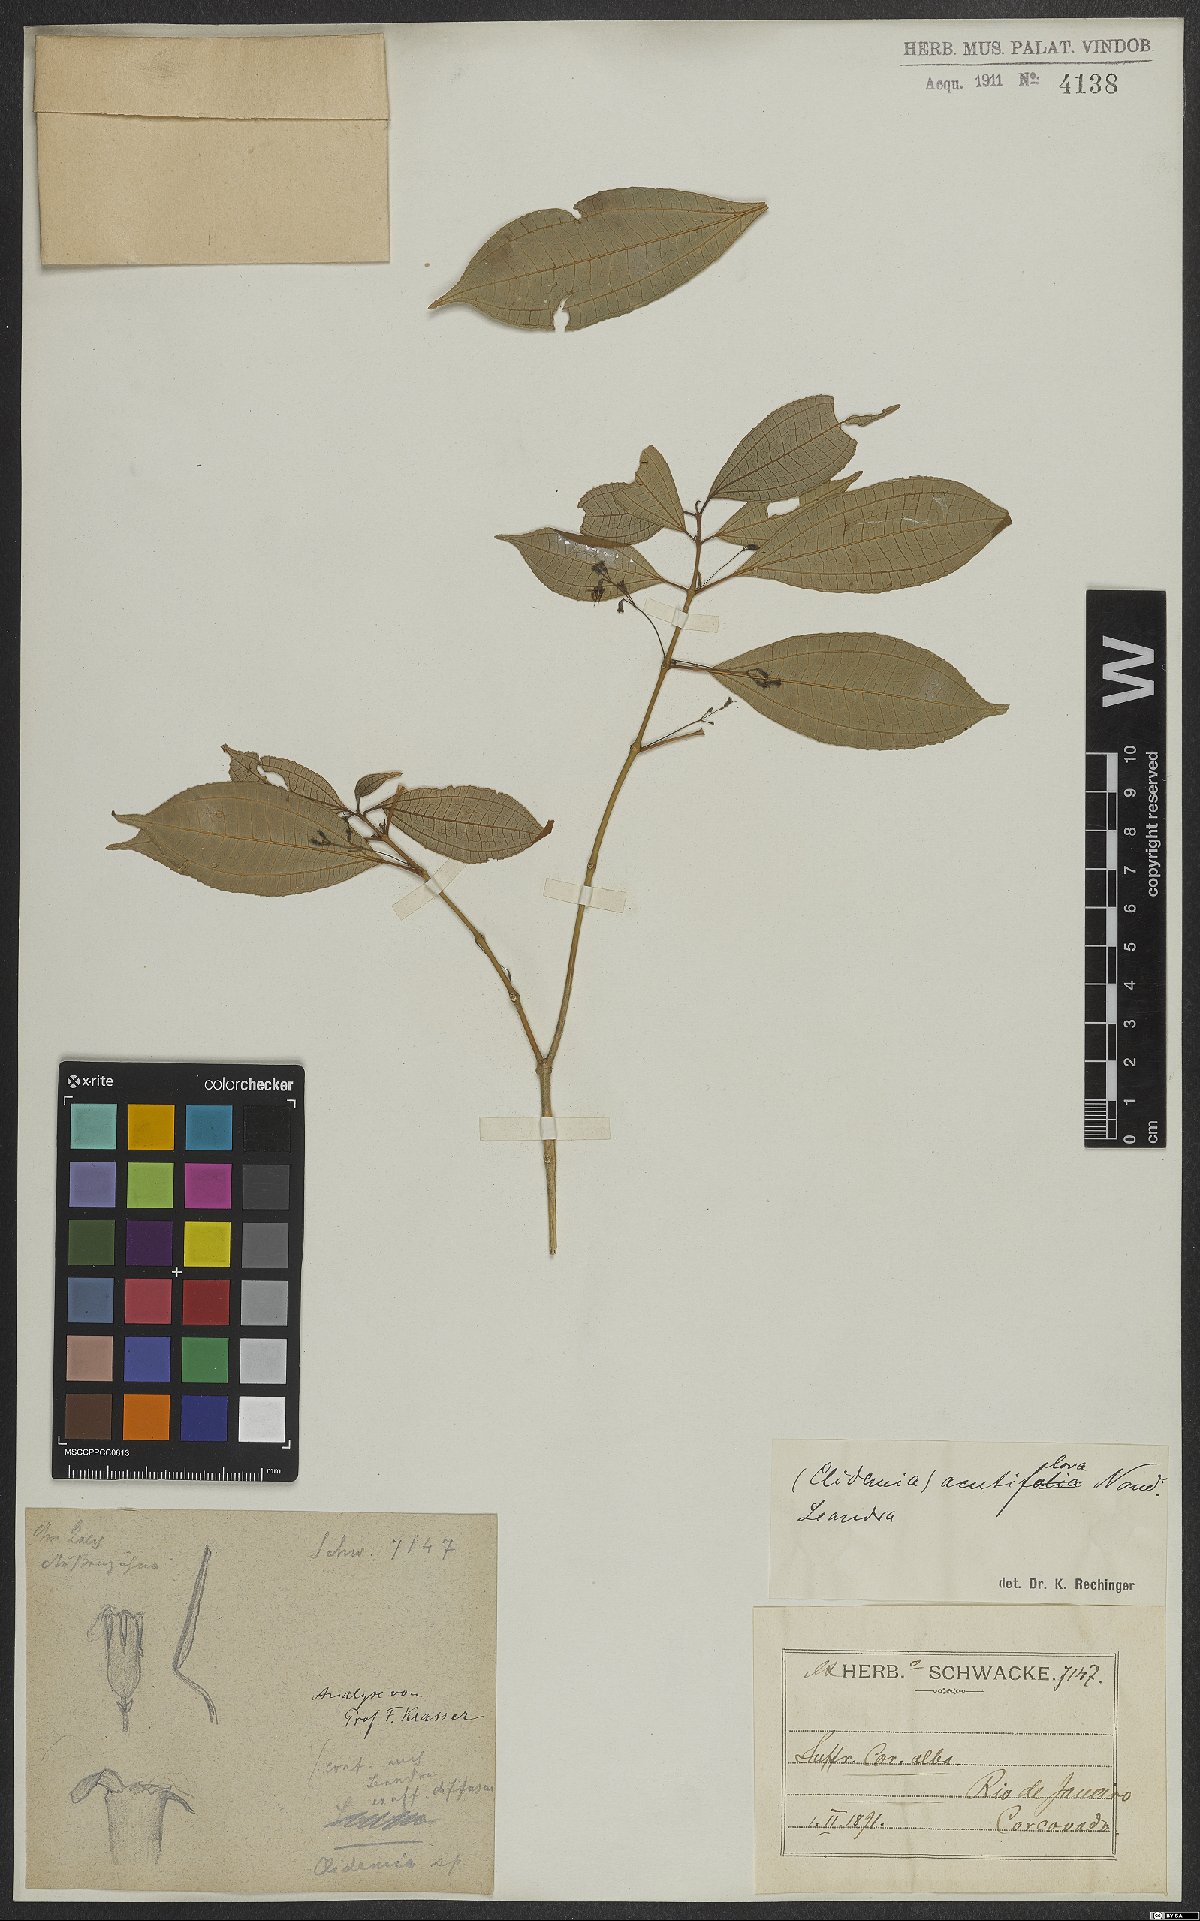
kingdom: Plantae
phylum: Tracheophyta
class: Magnoliopsida
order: Myrtales
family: Melastomataceae
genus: Miconia
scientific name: Miconia acutiflora
